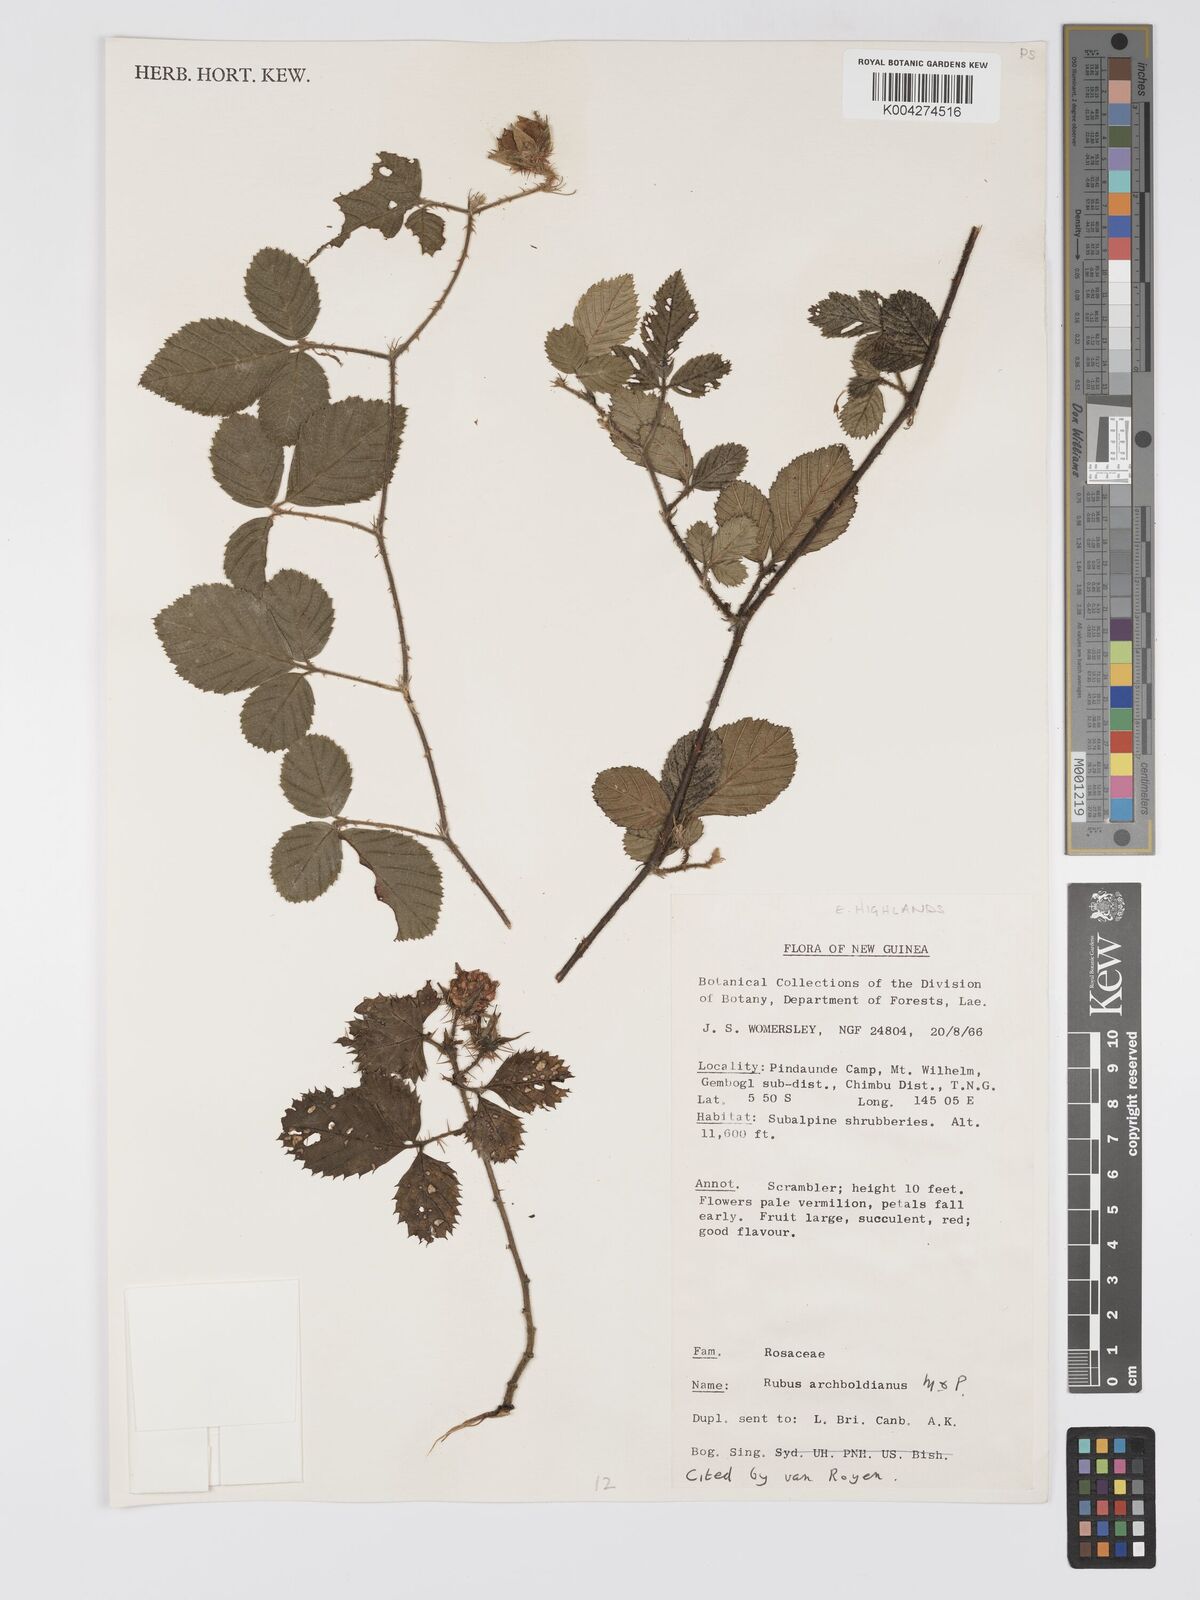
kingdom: Plantae
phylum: Tracheophyta
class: Magnoliopsida
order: Rosales
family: Rosaceae
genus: Rubus
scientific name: Rubus archboldianus
